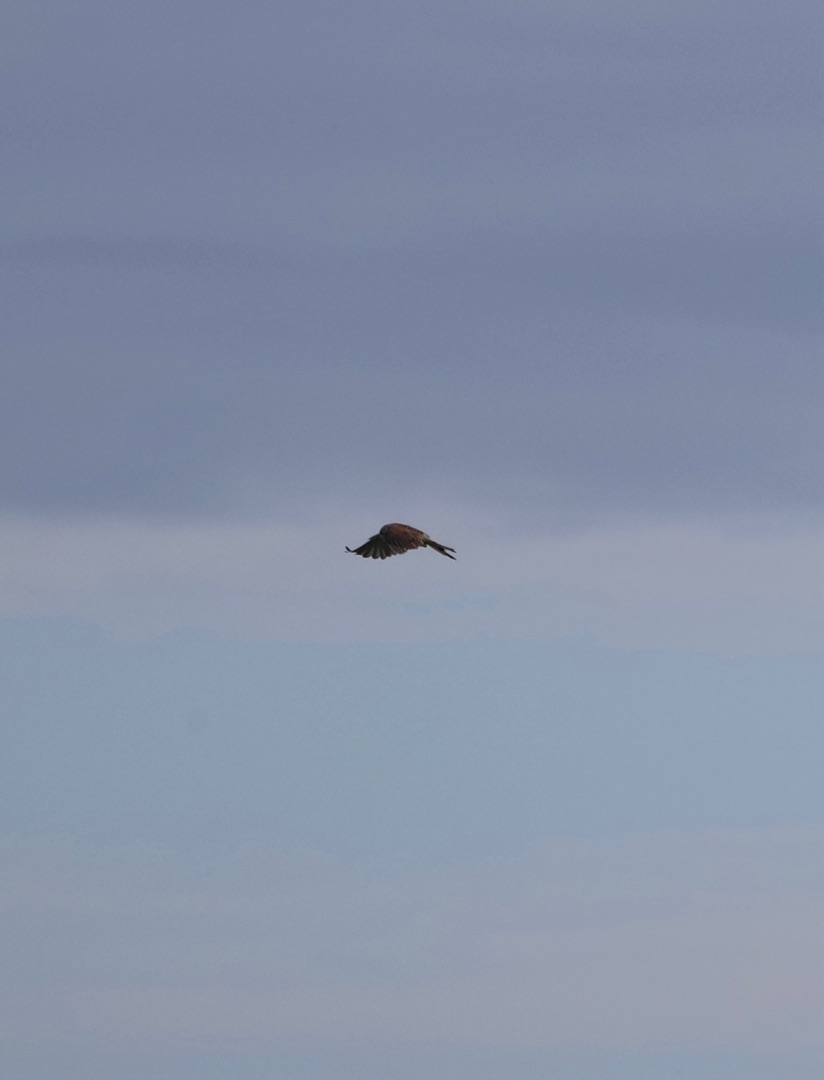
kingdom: Animalia
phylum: Chordata
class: Aves
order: Falconiformes
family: Falconidae
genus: Falco
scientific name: Falco tinnunculus
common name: Tårnfalk
